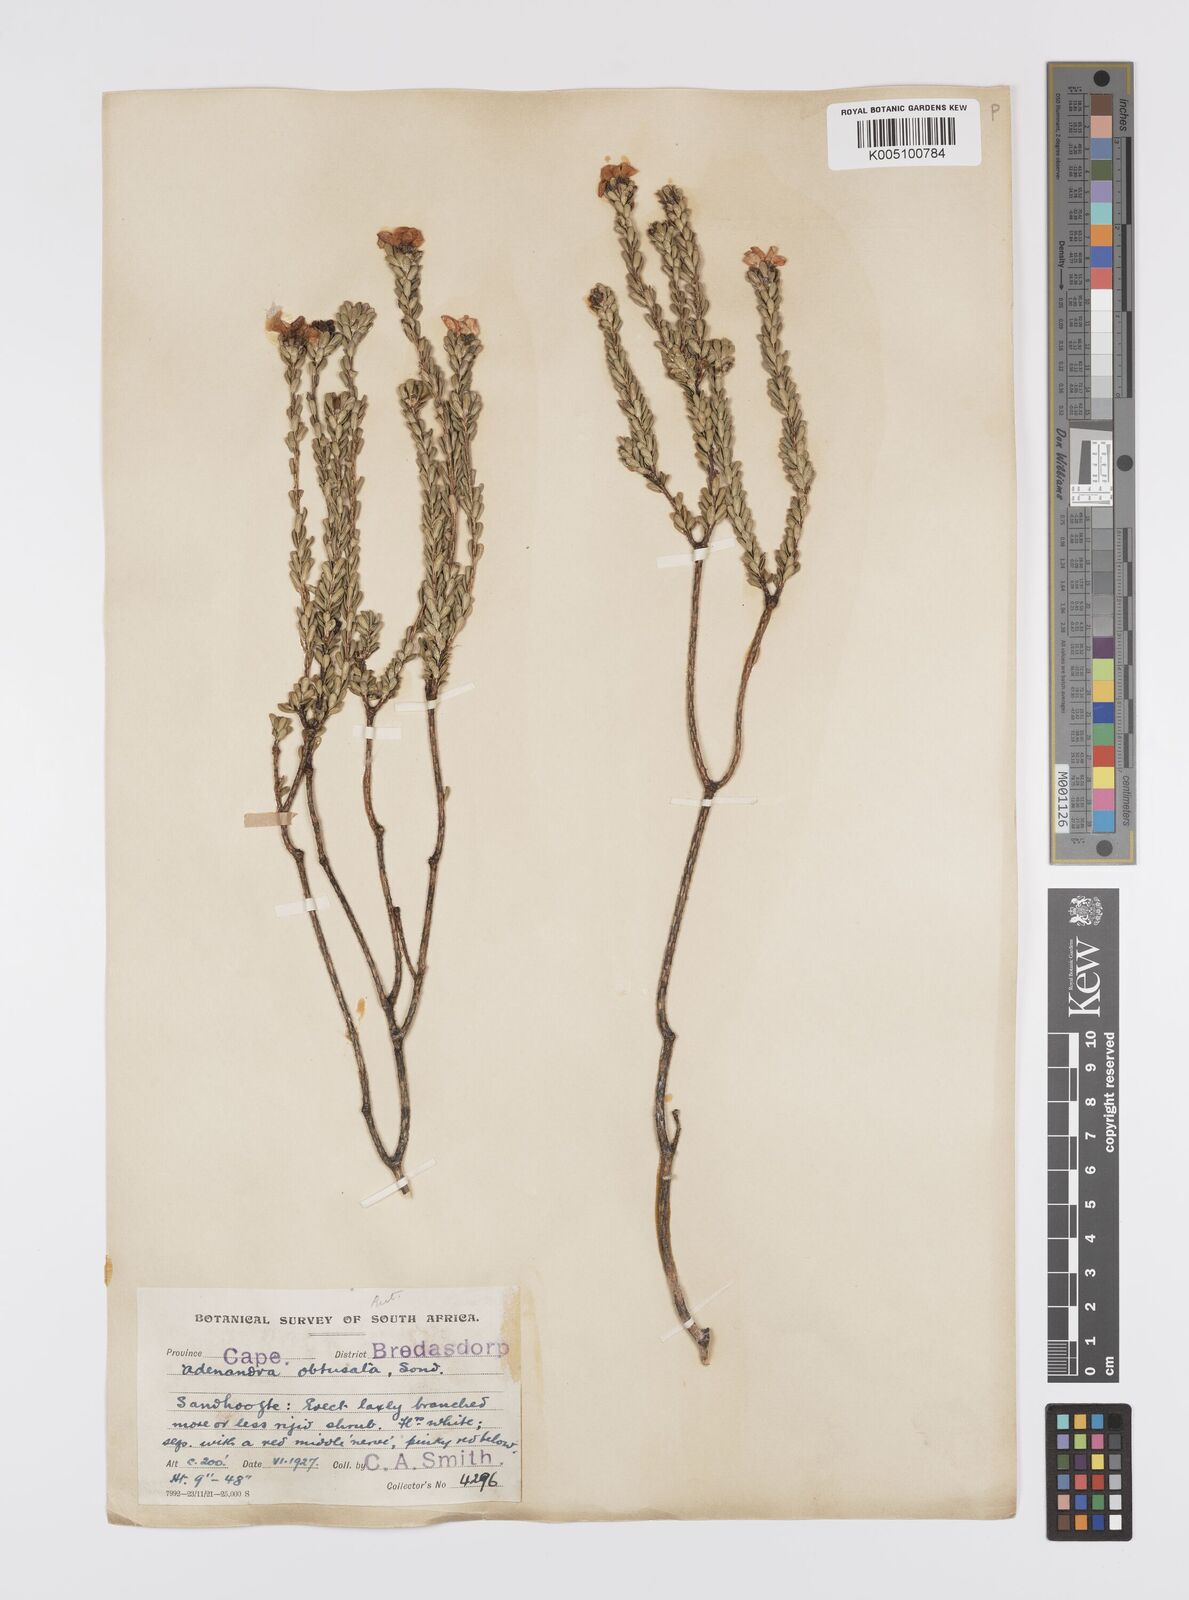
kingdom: Plantae
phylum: Tracheophyta
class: Magnoliopsida
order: Sapindales
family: Rutaceae
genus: Adenandra
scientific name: Adenandra obtusata
